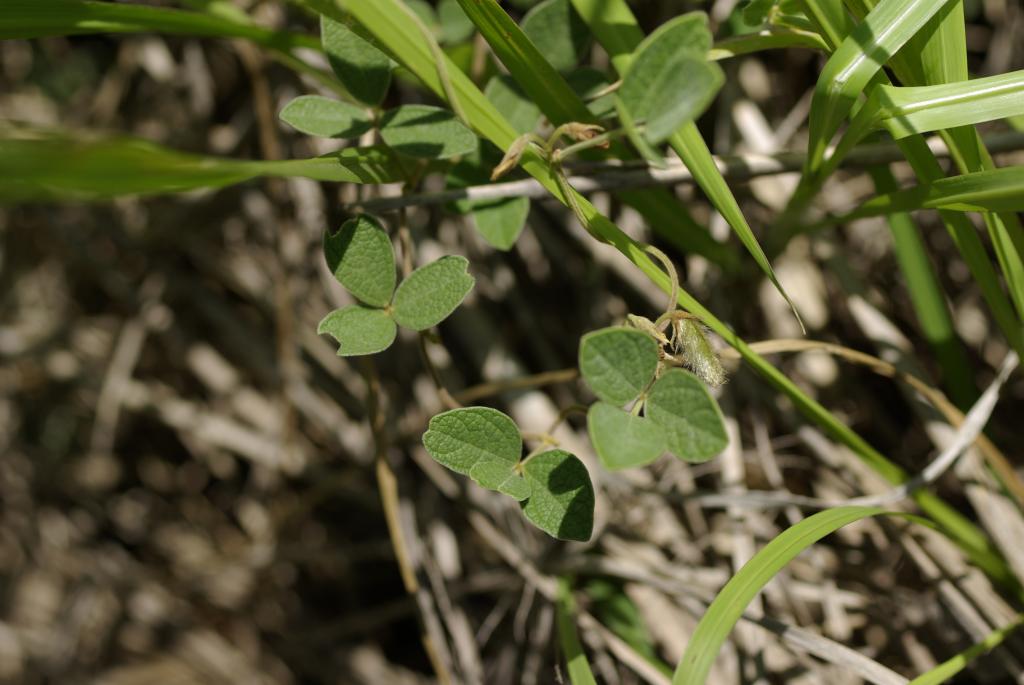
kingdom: Plantae
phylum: Tracheophyta
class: Magnoliopsida
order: Fabales
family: Fabaceae
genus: Cajanus
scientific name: Cajanus scarabaeoides
